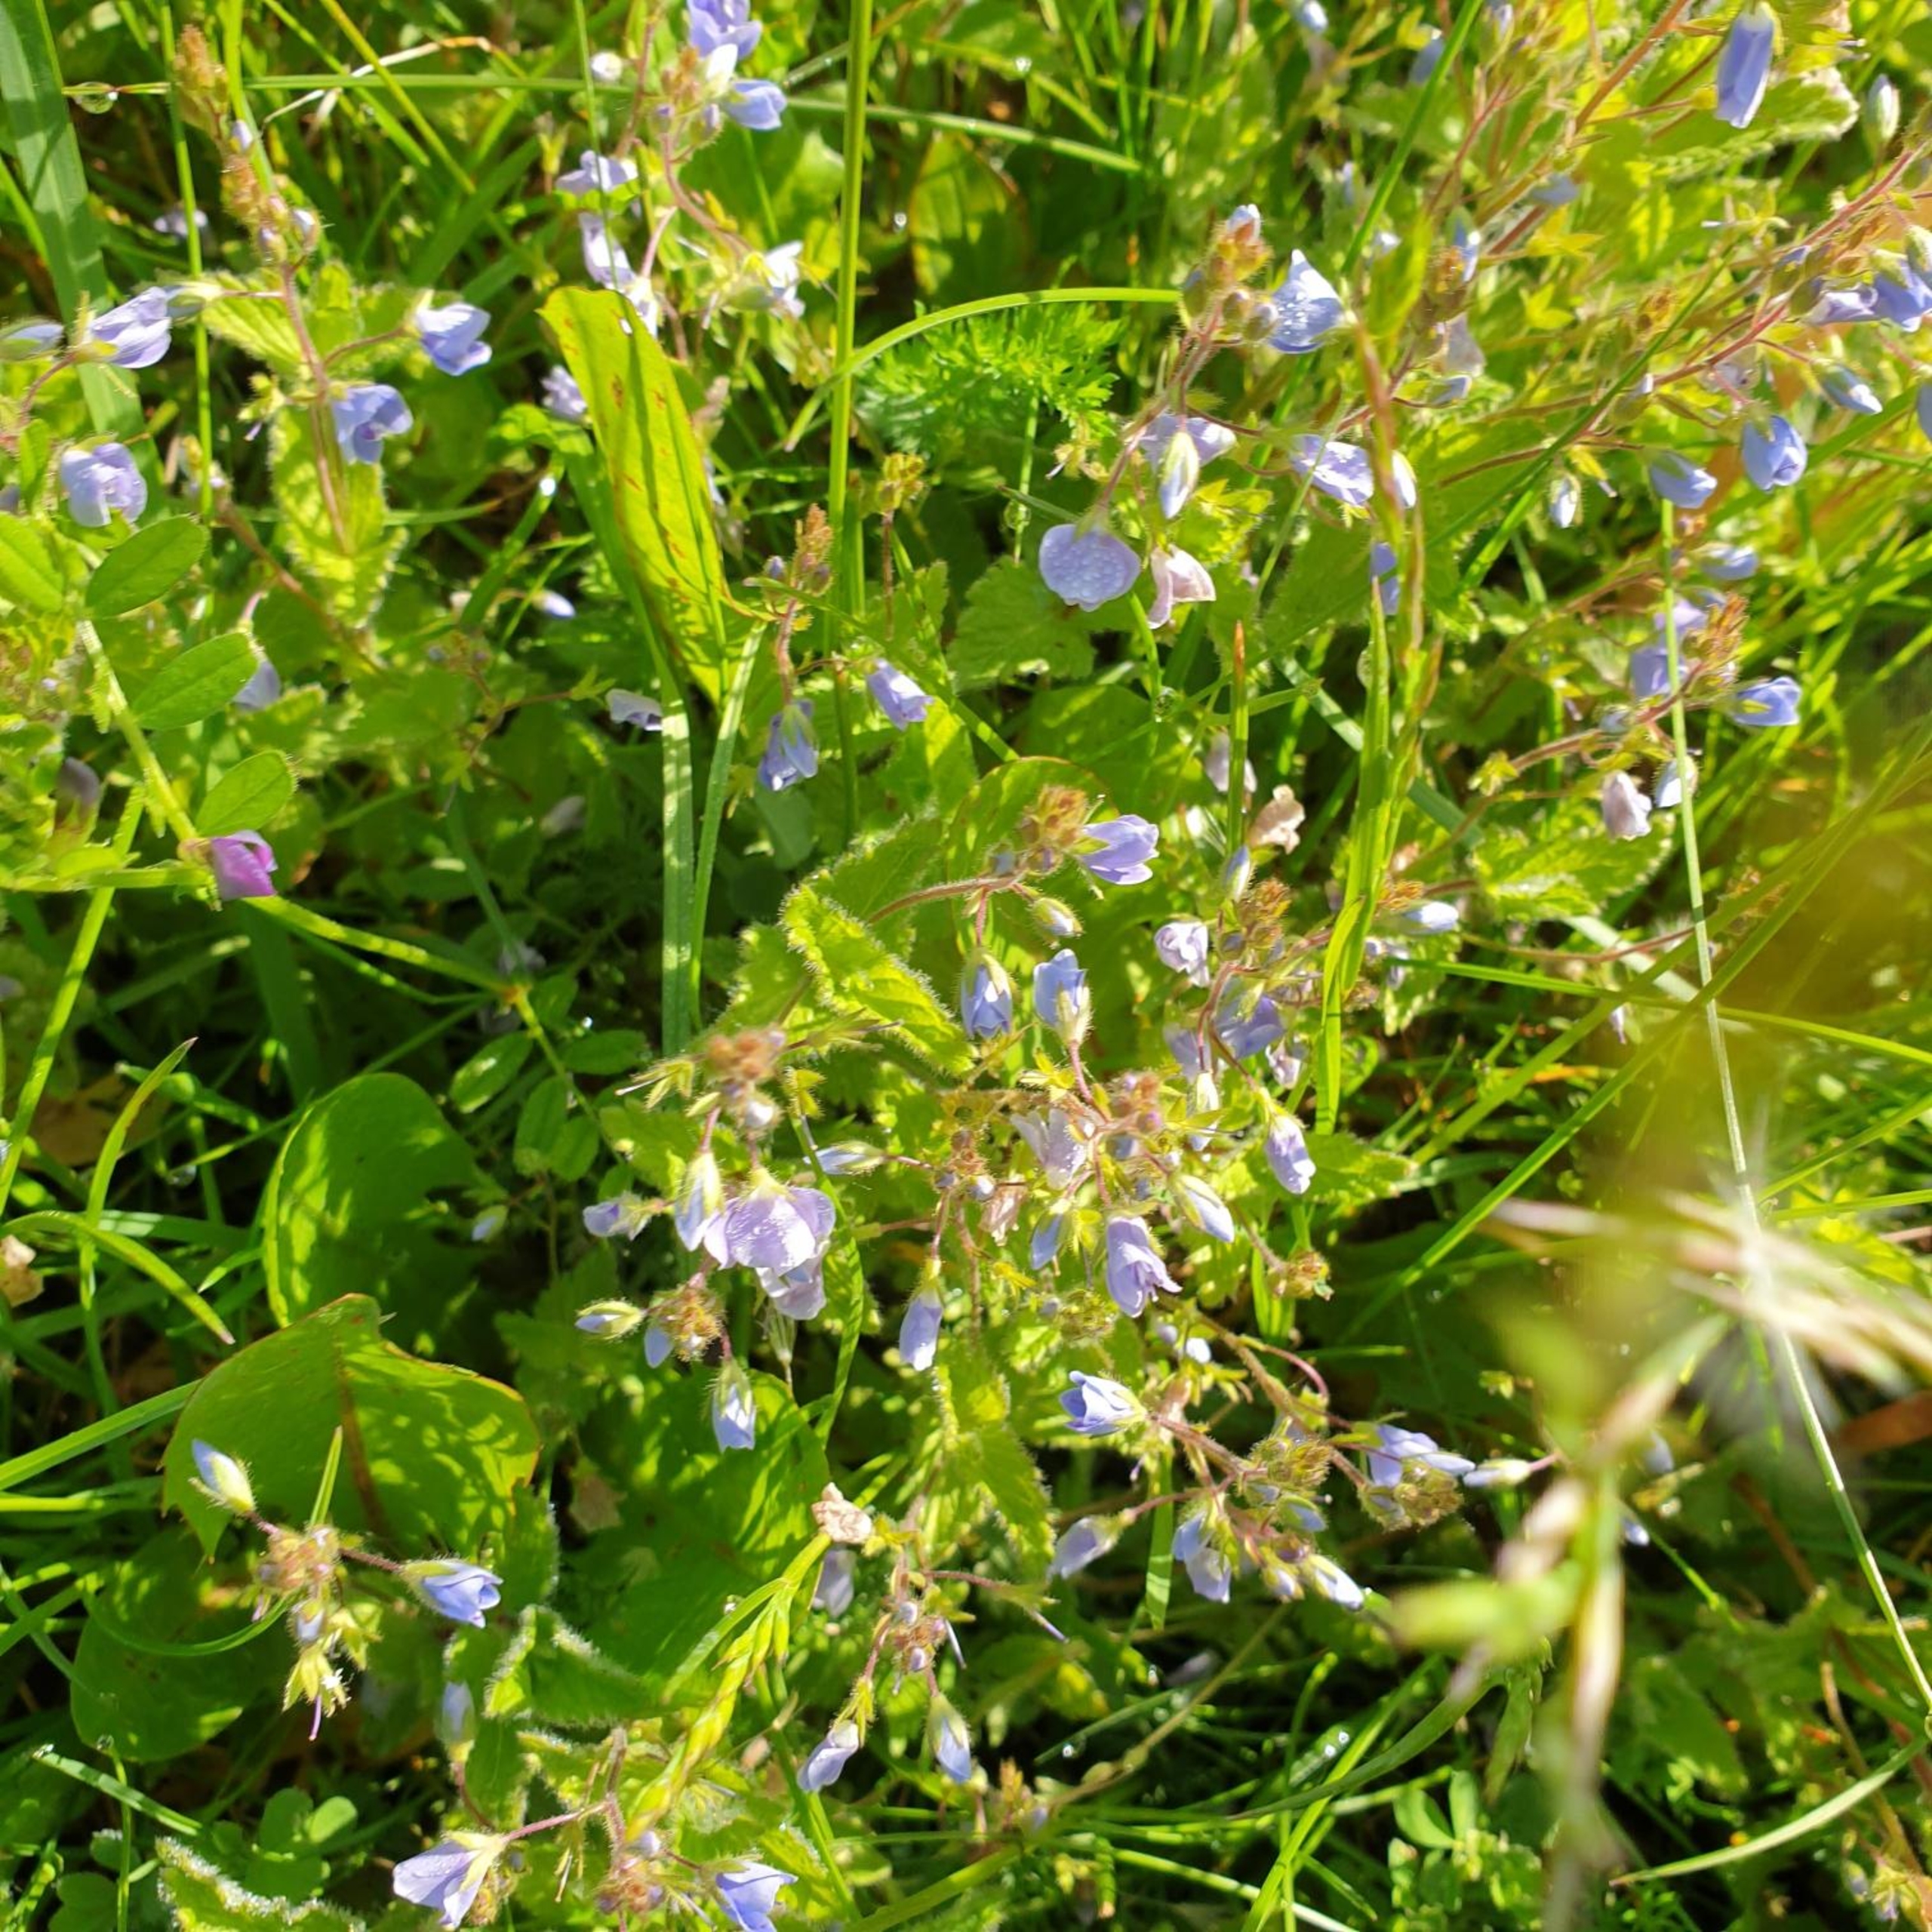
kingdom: Plantae
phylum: Tracheophyta
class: Magnoliopsida
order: Lamiales
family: Plantaginaceae
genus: Veronica
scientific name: Veronica chamaedrys
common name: Tveskægget ærenpris
